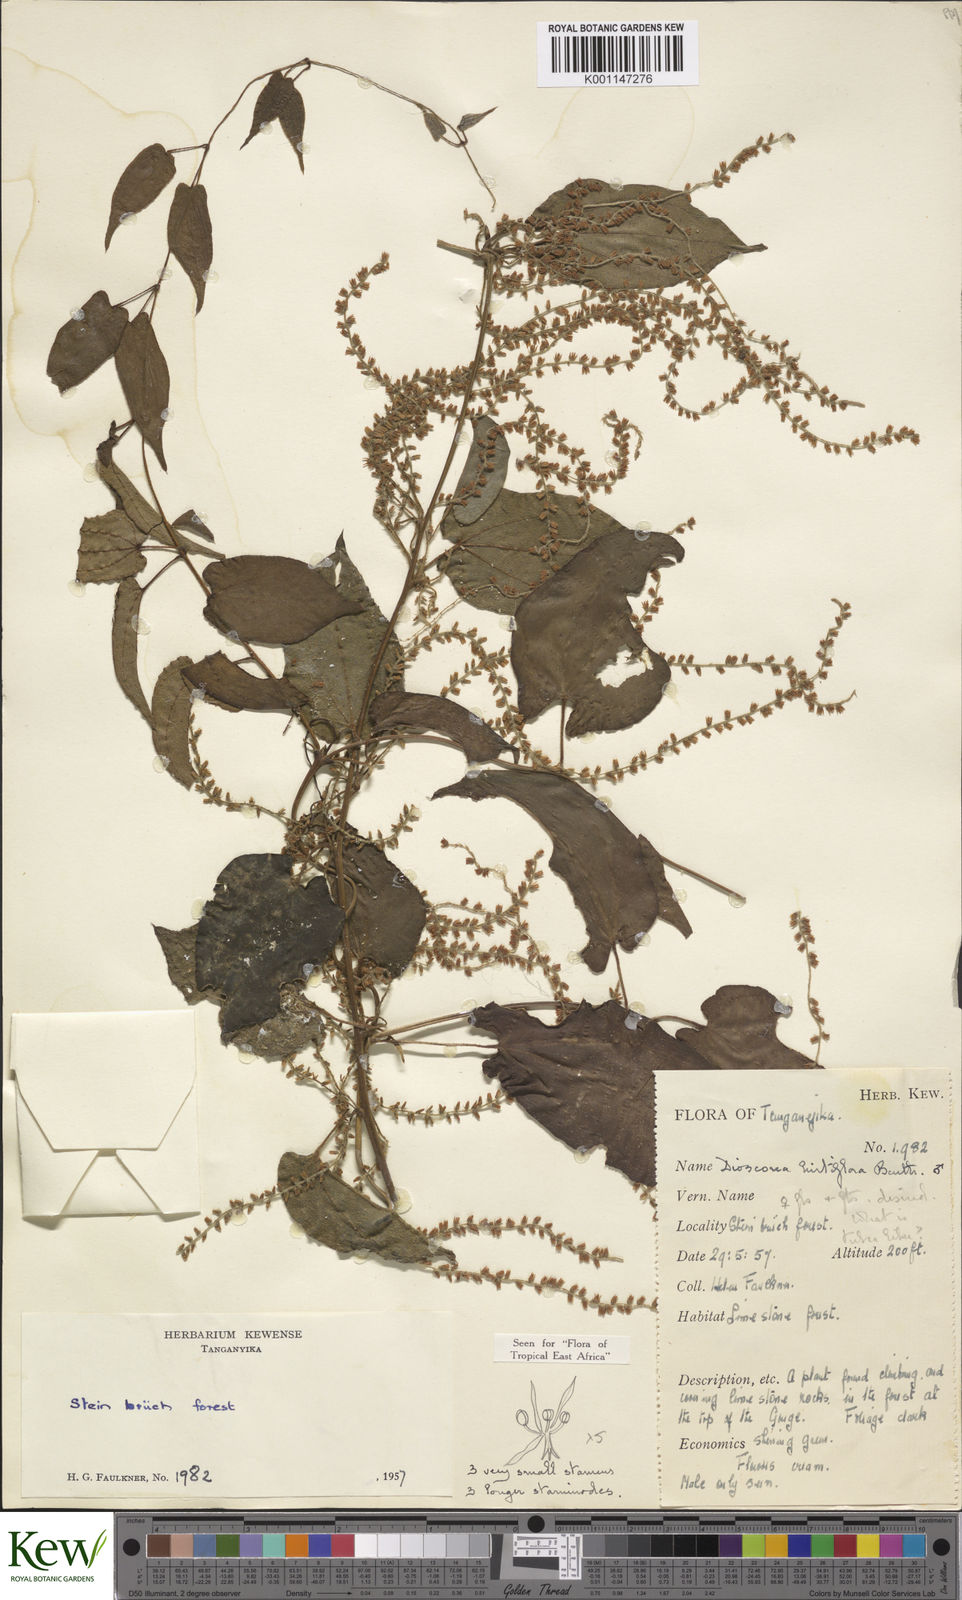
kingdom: Plantae
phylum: Tracheophyta
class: Liliopsida
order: Dioscoreales
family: Dioscoreaceae
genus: Dioscorea
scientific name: Dioscorea hirtiflora
